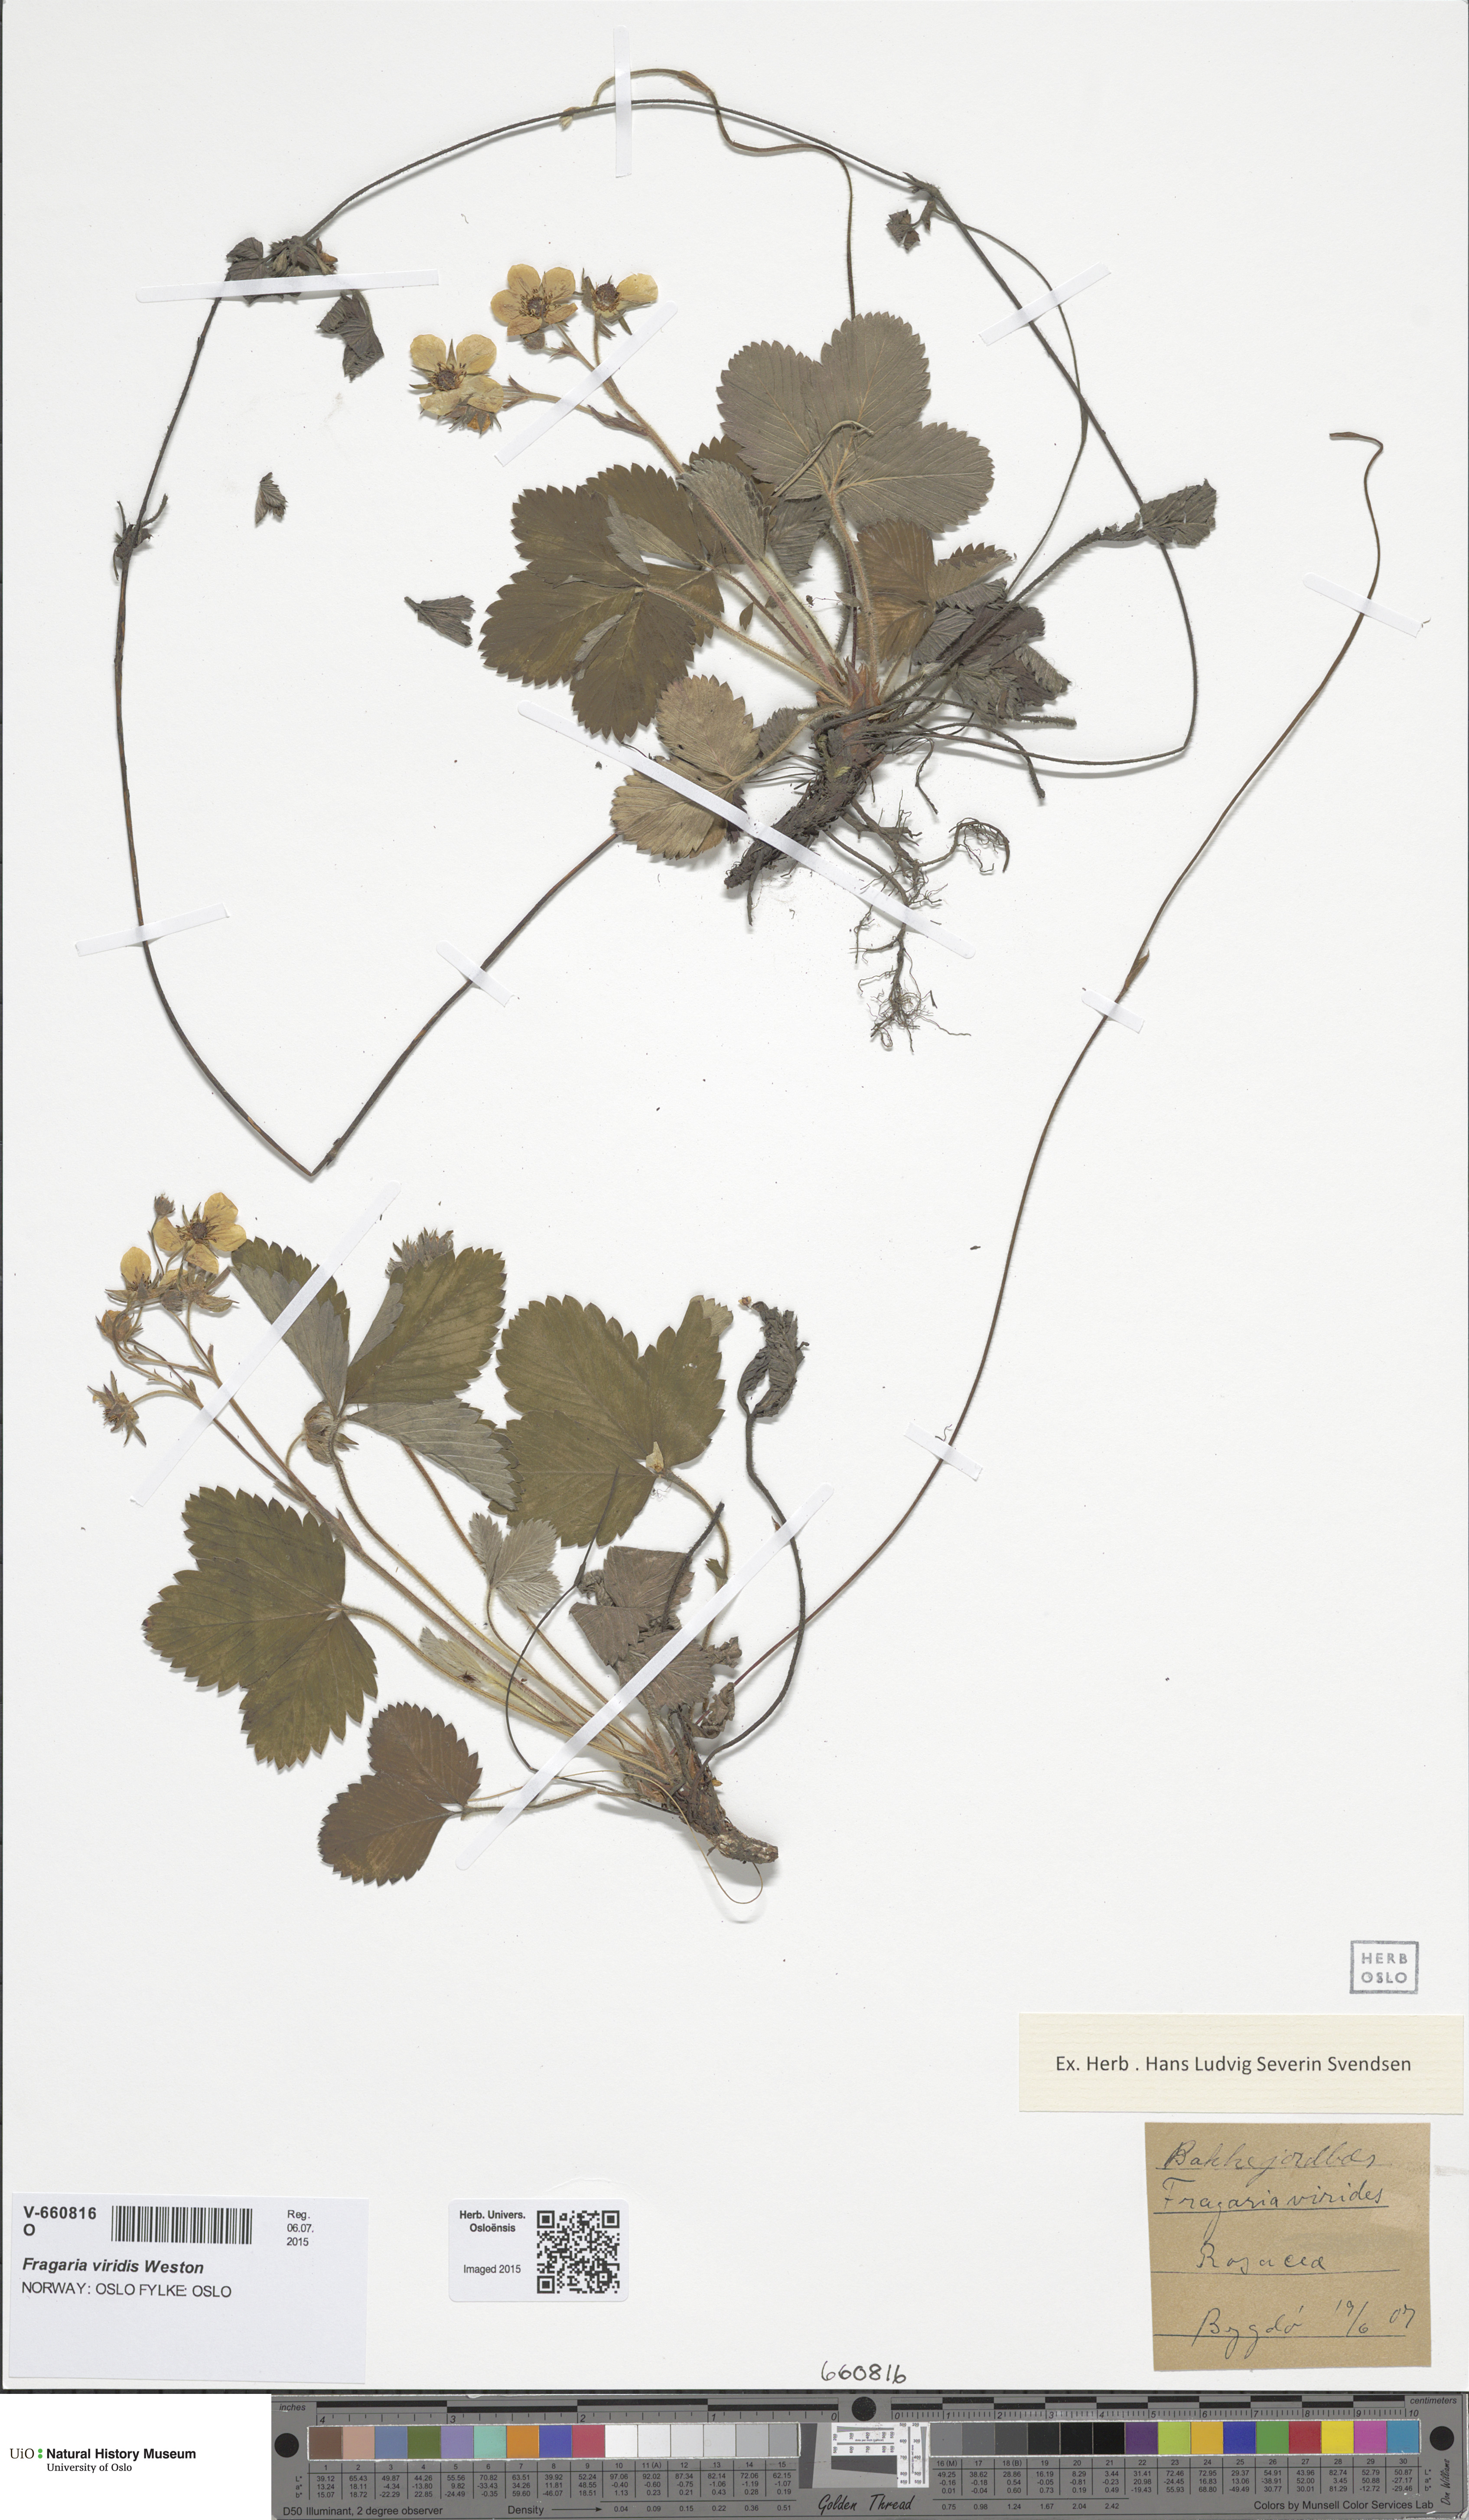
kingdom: Plantae
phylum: Tracheophyta
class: Magnoliopsida
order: Rosales
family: Rosaceae
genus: Fragaria
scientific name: Fragaria viridis
